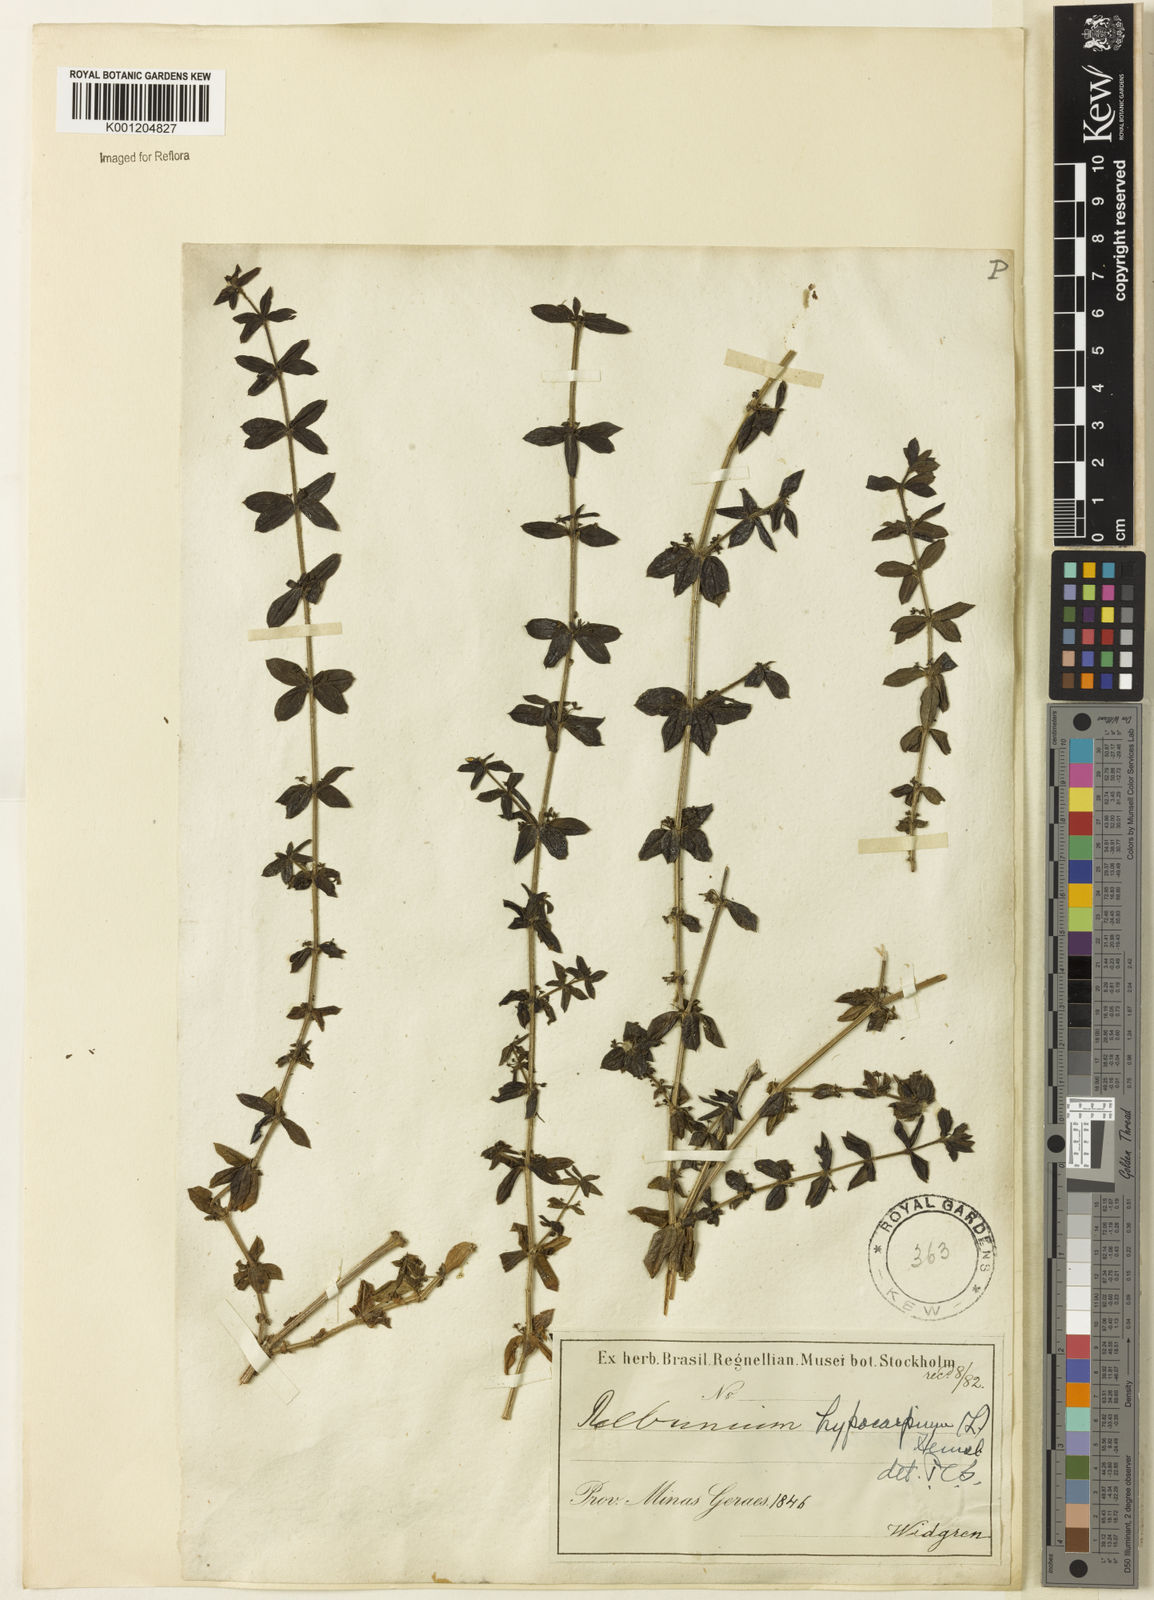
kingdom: Plantae
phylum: Tracheophyta
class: Magnoliopsida
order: Gentianales
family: Rubiaceae
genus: Galium
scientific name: Galium hypocarpium
